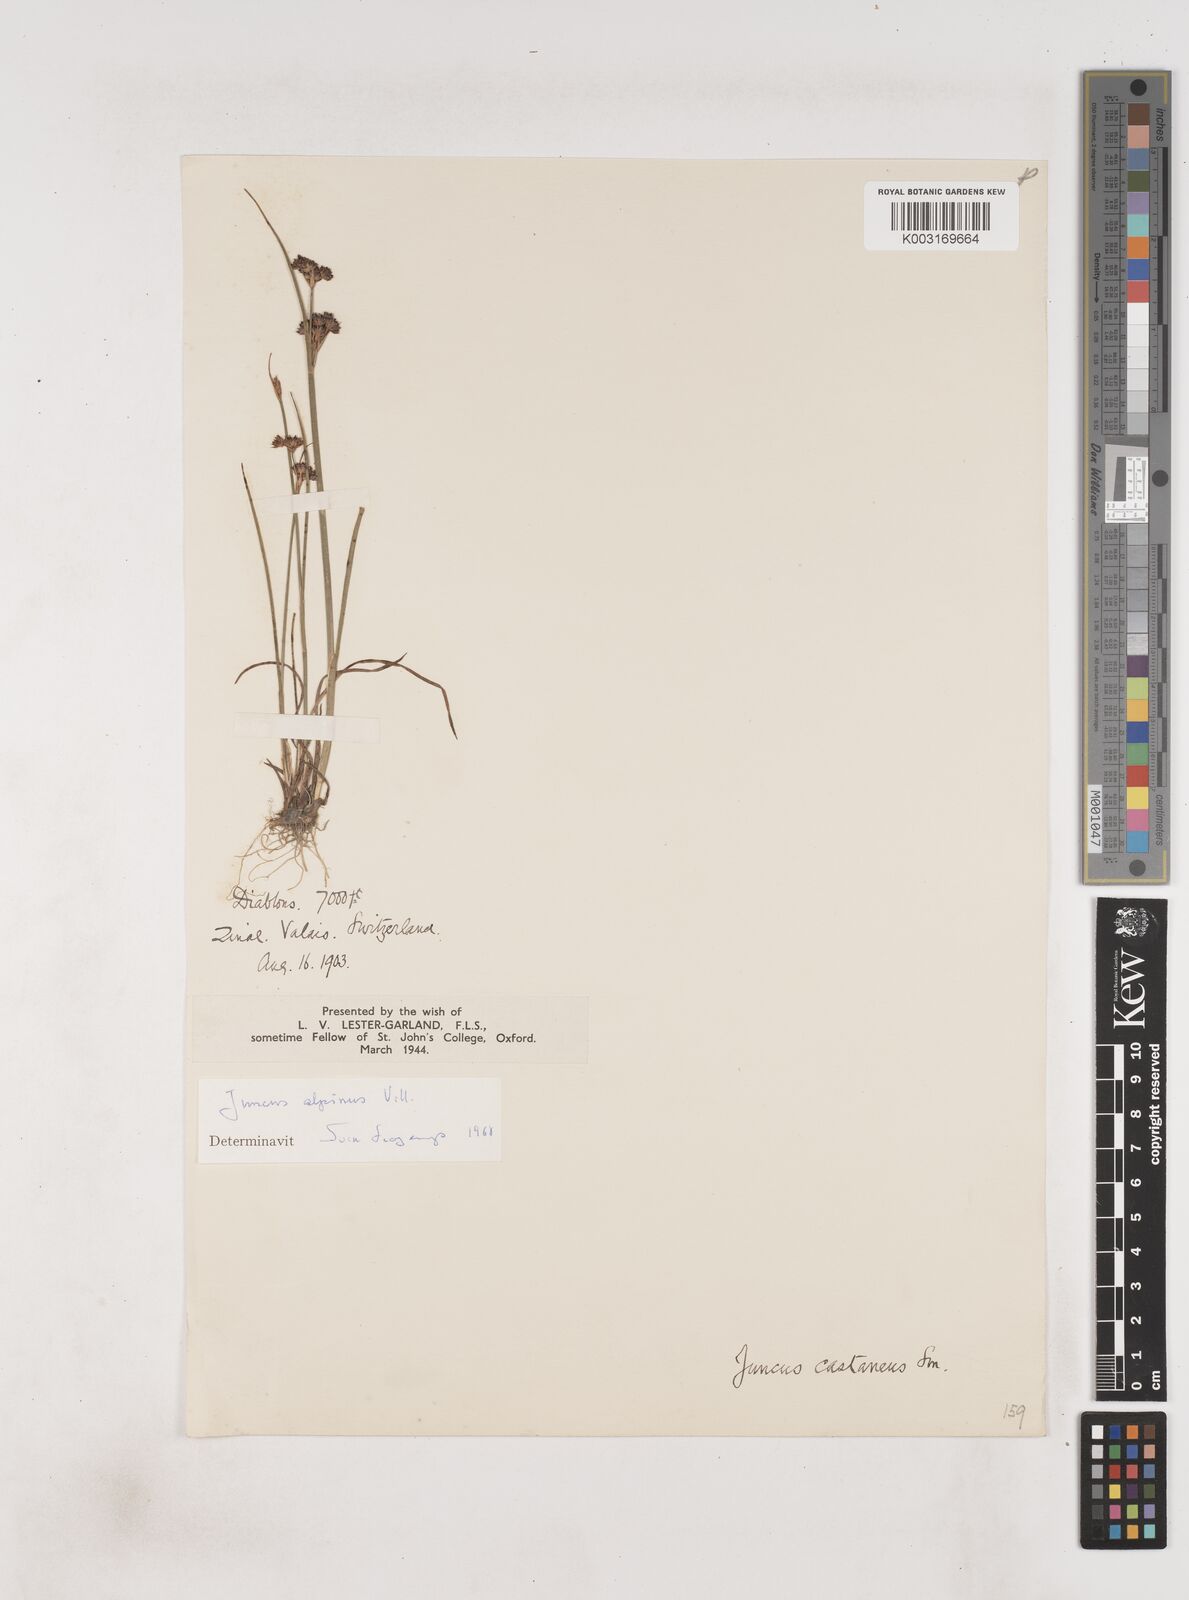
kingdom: Plantae
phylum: Tracheophyta
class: Liliopsida
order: Poales
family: Juncaceae
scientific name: Juncaceae
